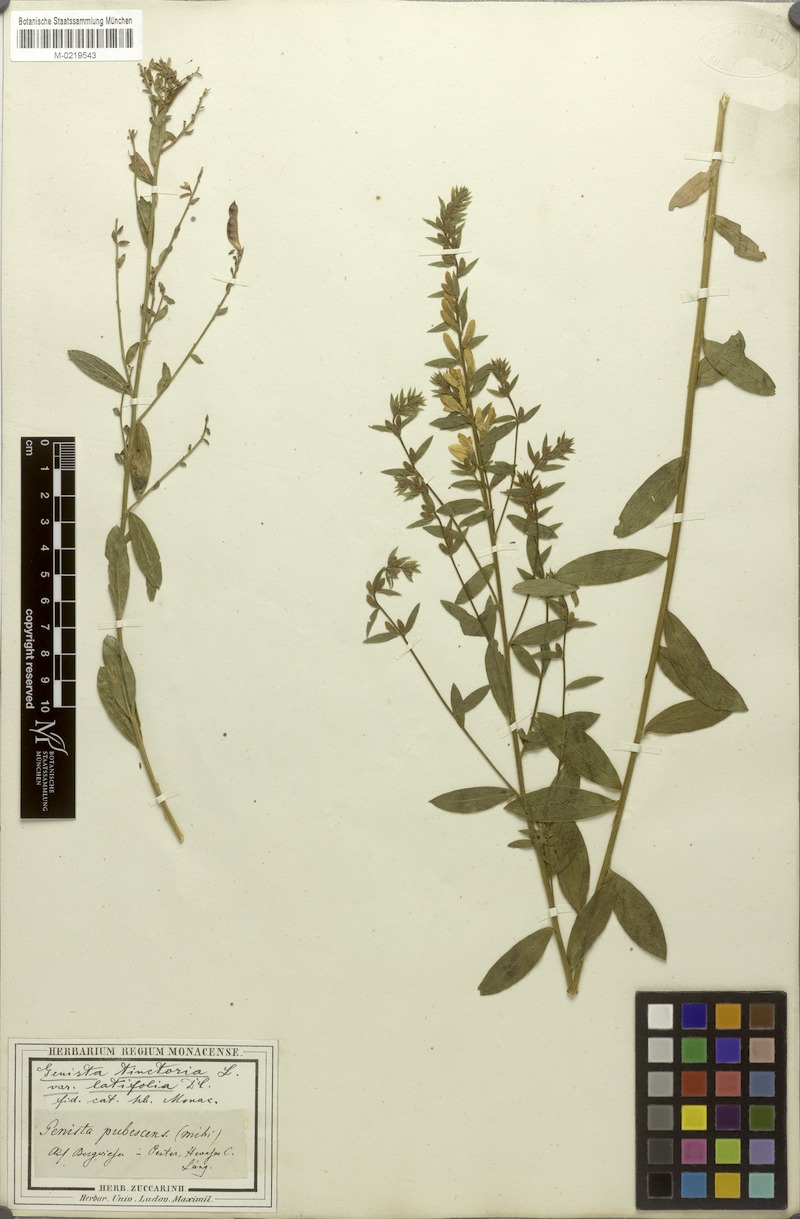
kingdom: Plantae
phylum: Tracheophyta
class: Magnoliopsida
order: Fabales
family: Fabaceae
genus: Genista
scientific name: Genista tinctoria
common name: Dyer's greenweed
